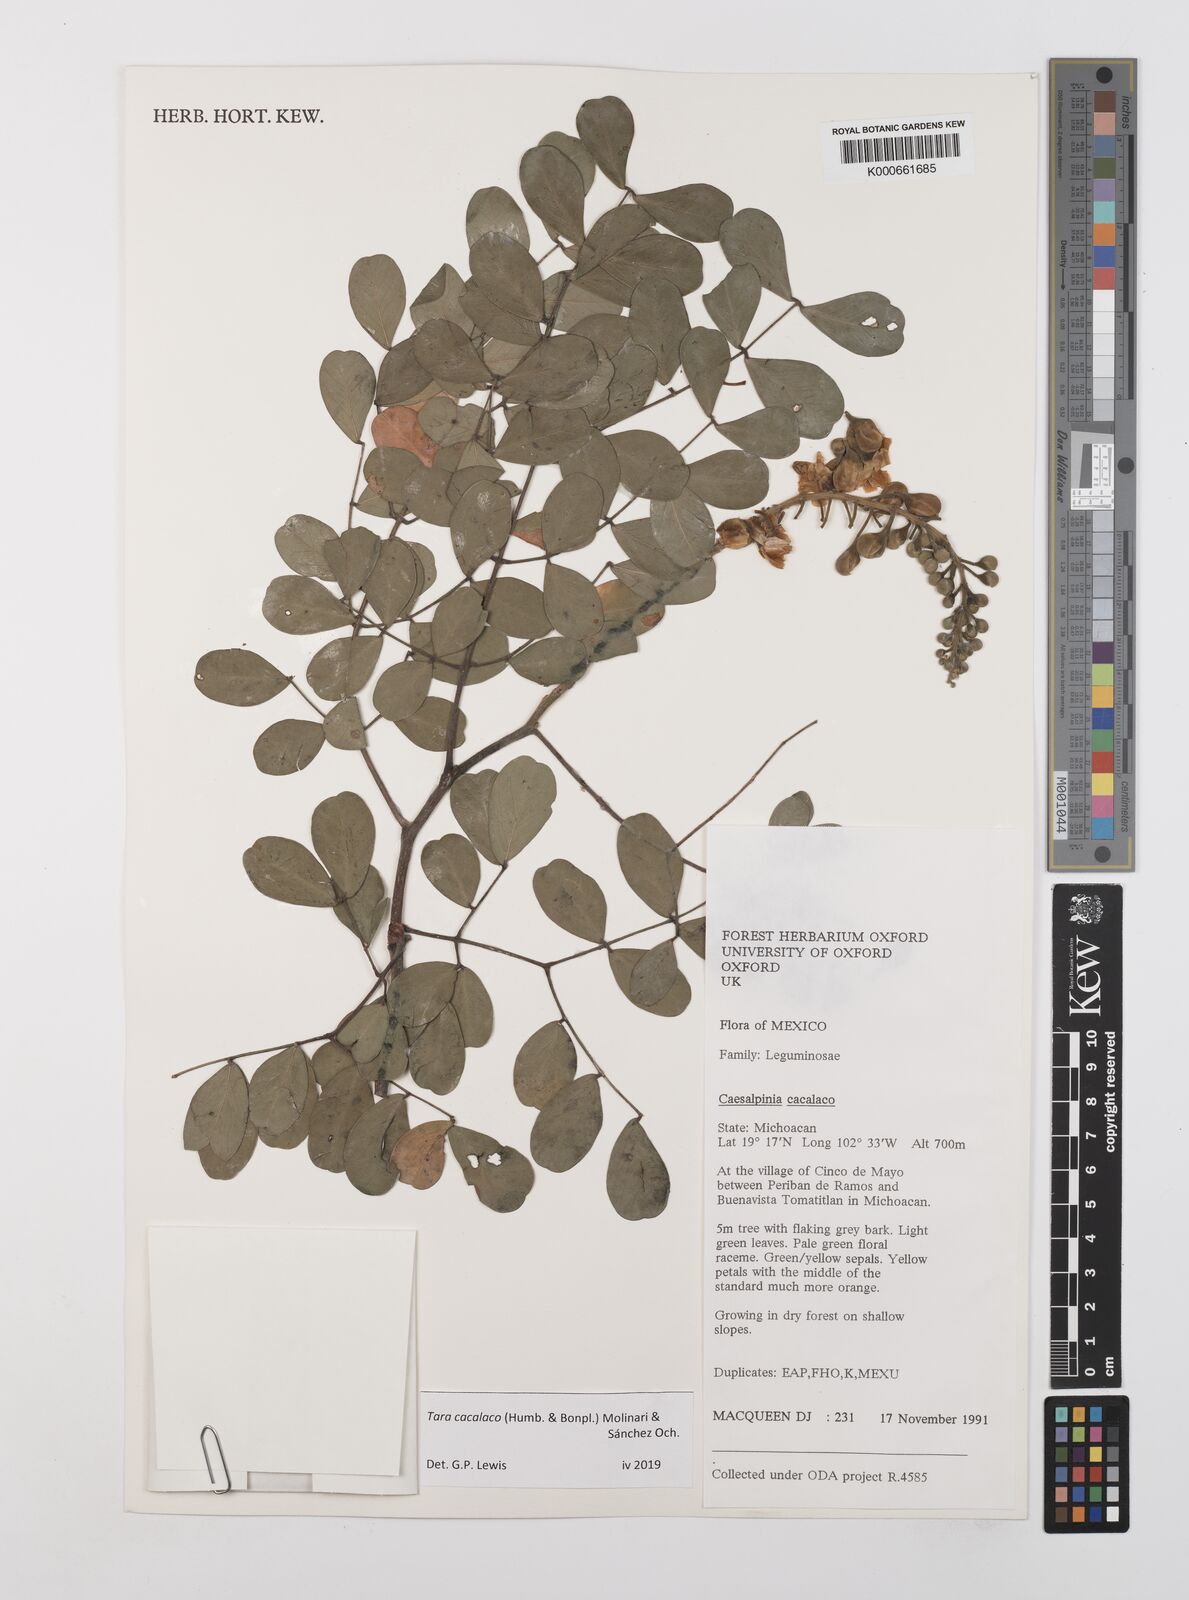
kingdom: Plantae
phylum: Tracheophyta
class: Magnoliopsida
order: Fabales
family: Fabaceae
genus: Tara
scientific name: Tara cacalaco
